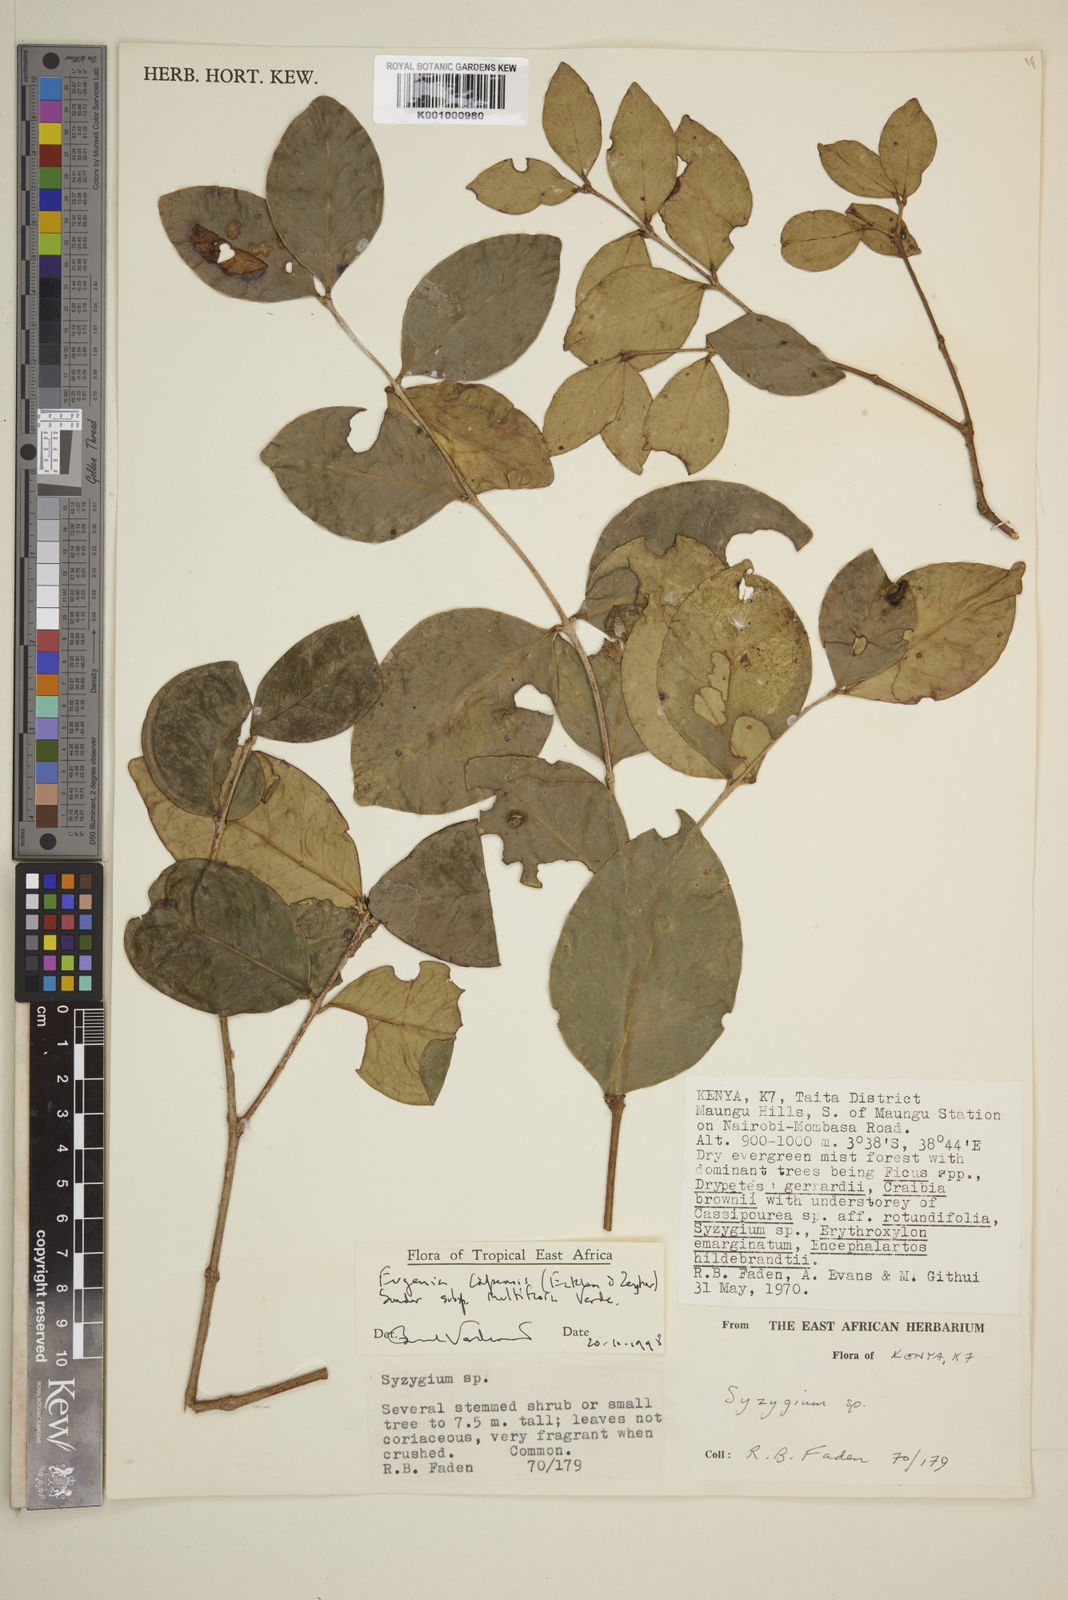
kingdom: Plantae
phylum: Tracheophyta
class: Magnoliopsida
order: Myrtales
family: Myrtaceae
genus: Eugenia
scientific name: Eugenia capensis
